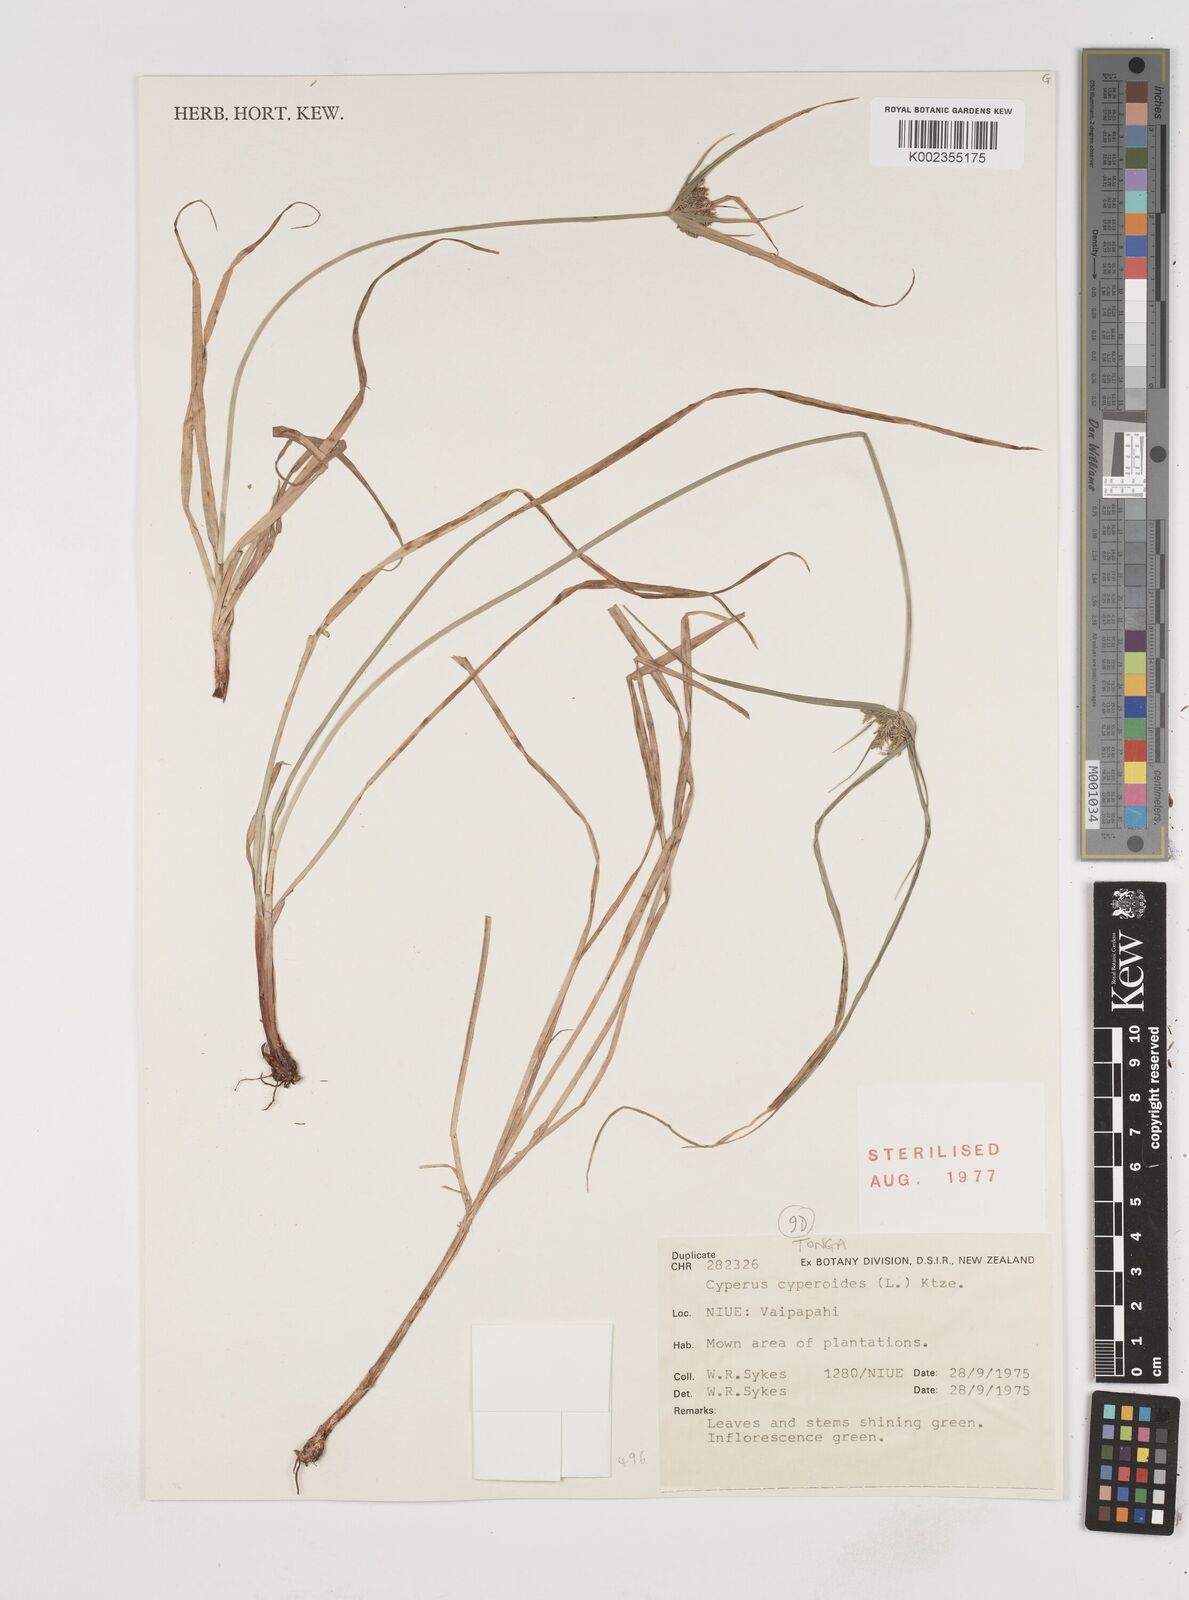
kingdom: Plantae
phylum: Tracheophyta
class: Liliopsida
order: Poales
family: Cyperaceae
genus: Cyperus
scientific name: Cyperus cyperoides
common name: Pacific island flat sedge
